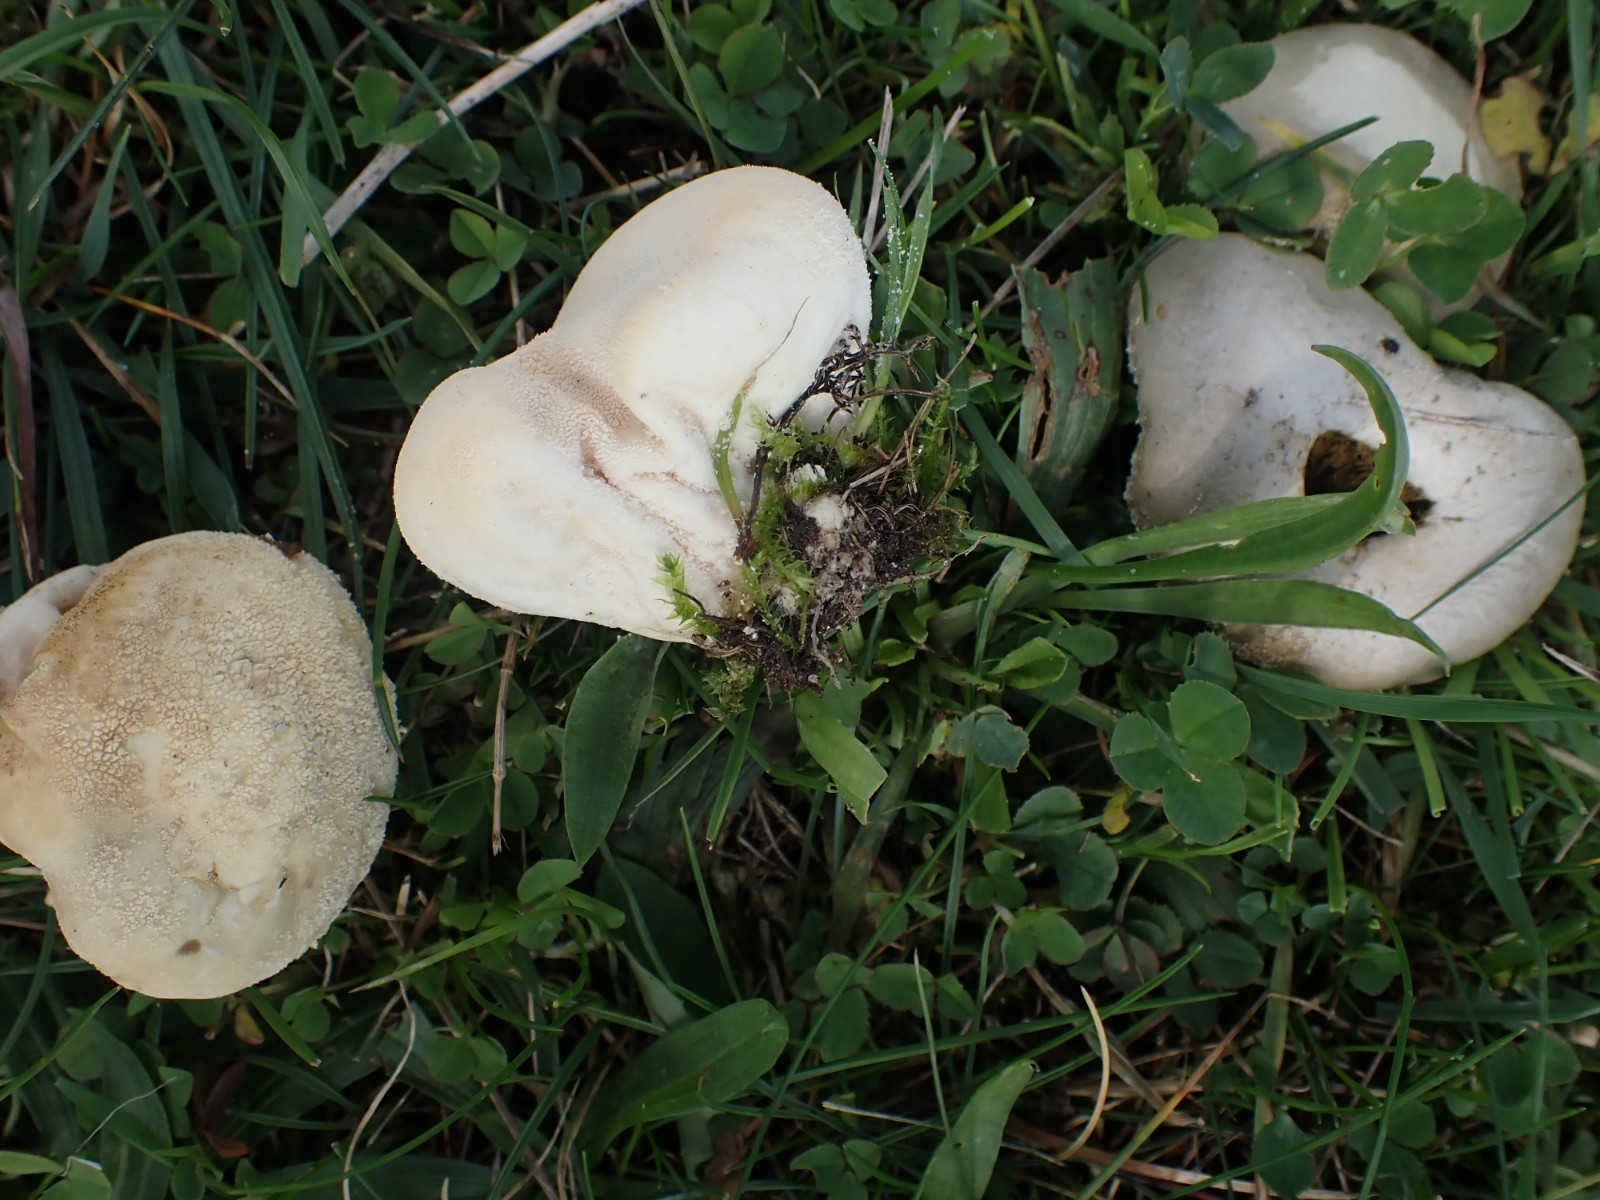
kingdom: Fungi
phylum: Basidiomycota
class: Agaricomycetes
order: Agaricales
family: Lycoperdaceae
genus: Lycoperdon
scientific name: Lycoperdon pratense
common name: flad støvbold
